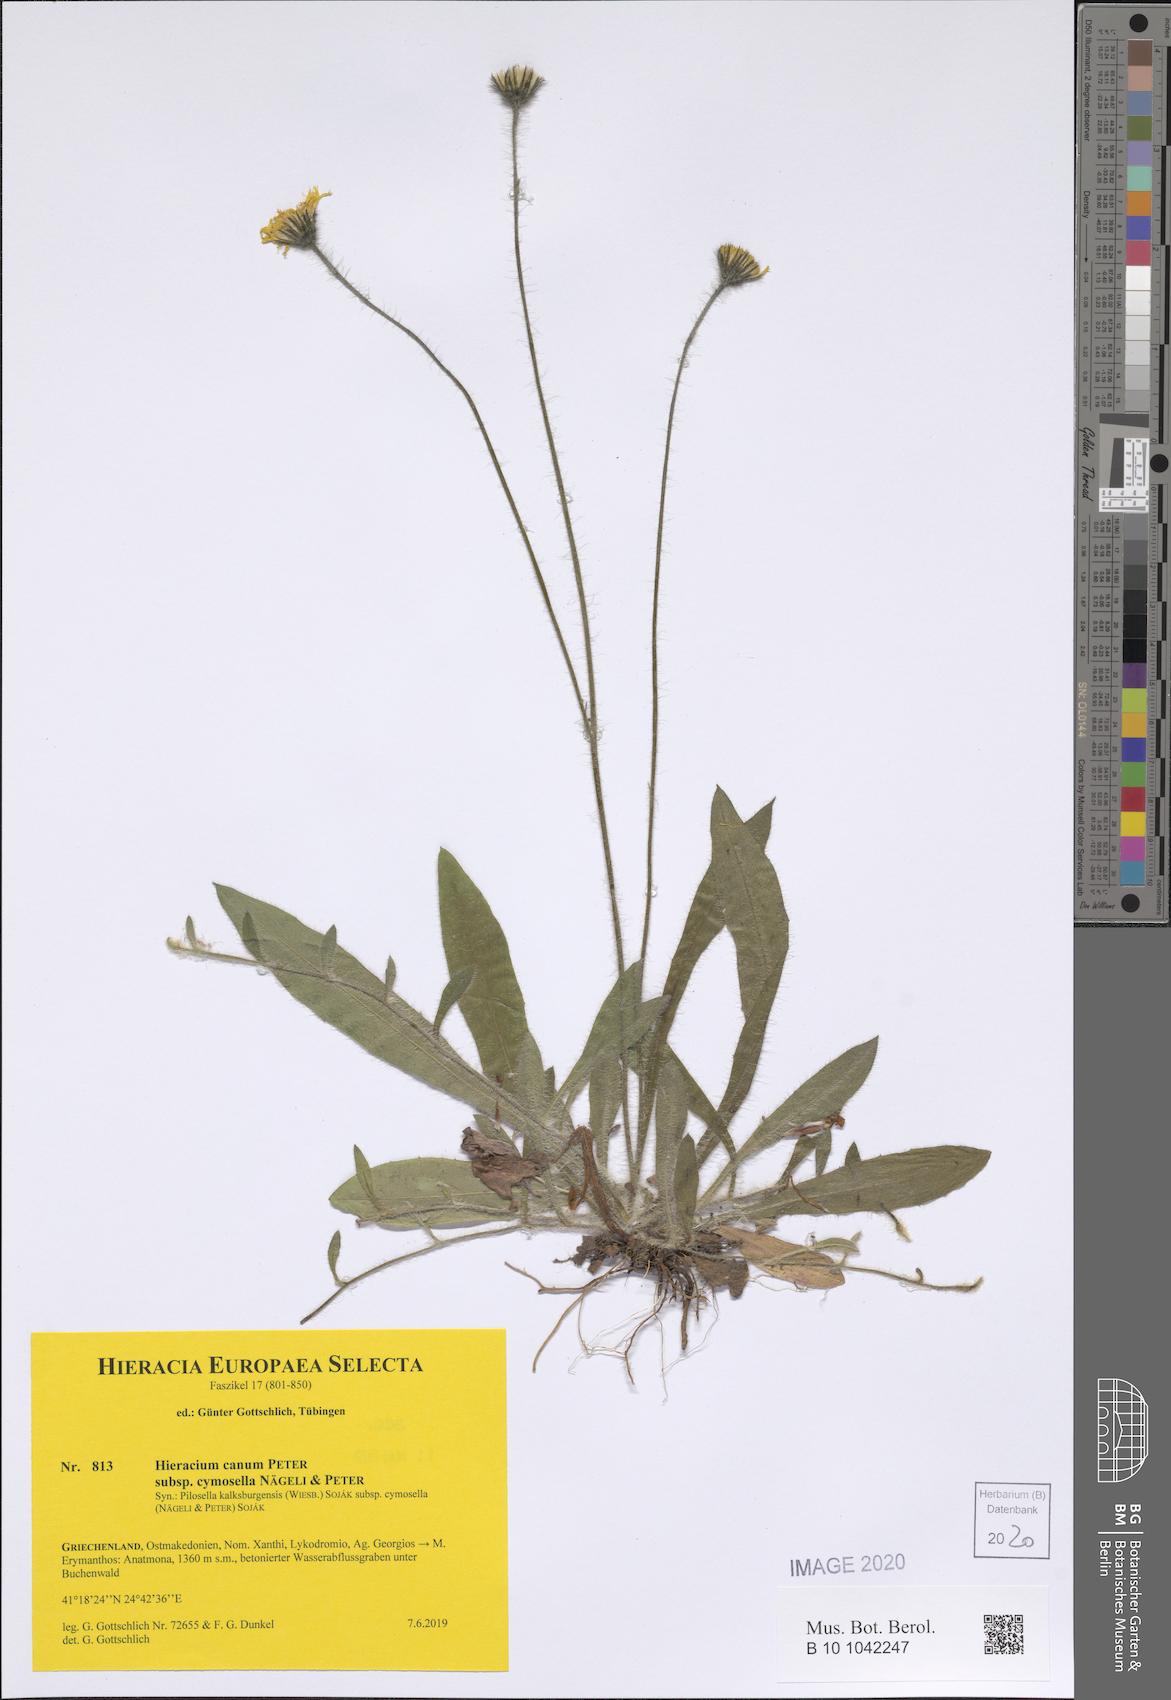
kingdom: Plantae
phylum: Tracheophyta
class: Magnoliopsida
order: Asterales
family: Asteraceae
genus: Pilosella
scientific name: Pilosella cana
